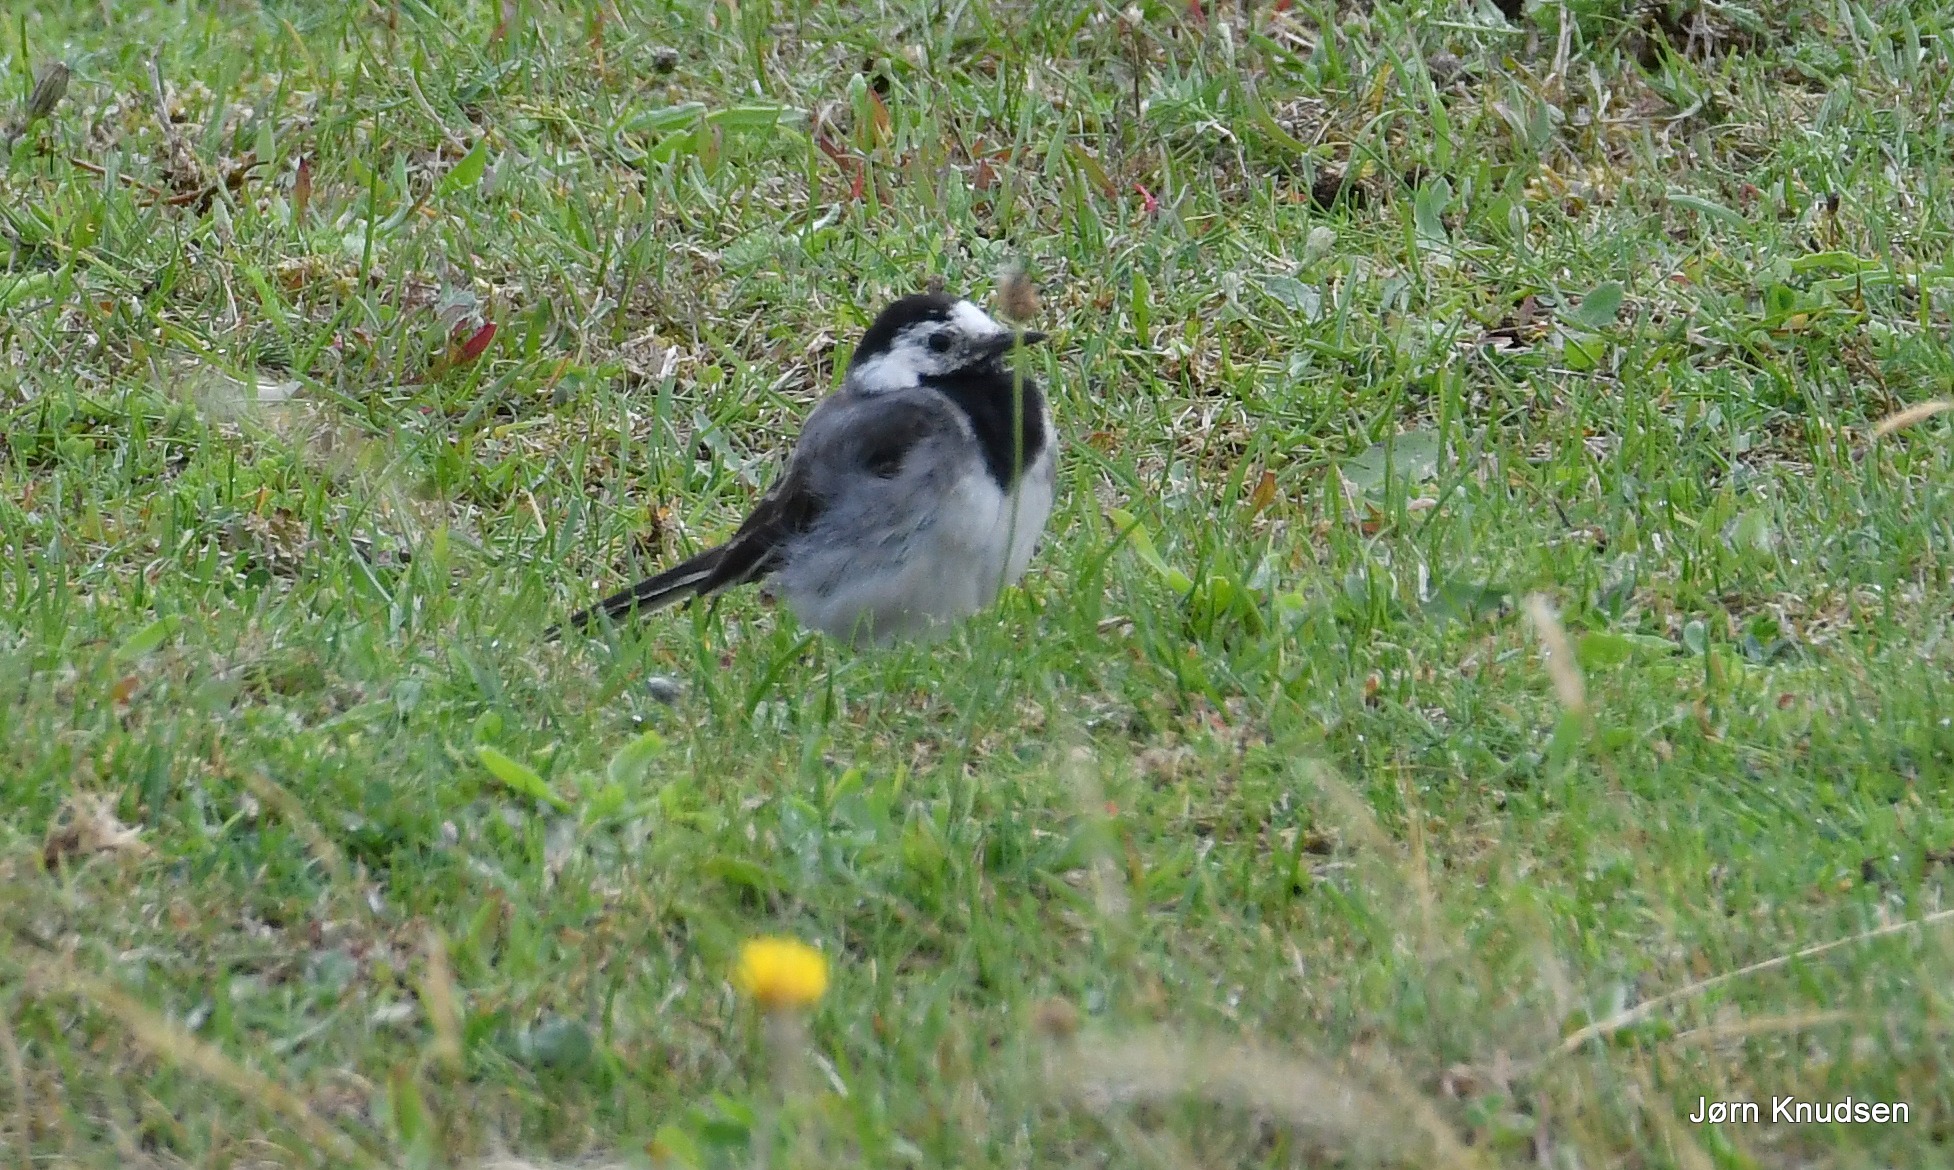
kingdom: Animalia
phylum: Chordata
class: Aves
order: Passeriformes
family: Motacillidae
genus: Motacilla
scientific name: Motacilla alba
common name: Hvid vipstjert
